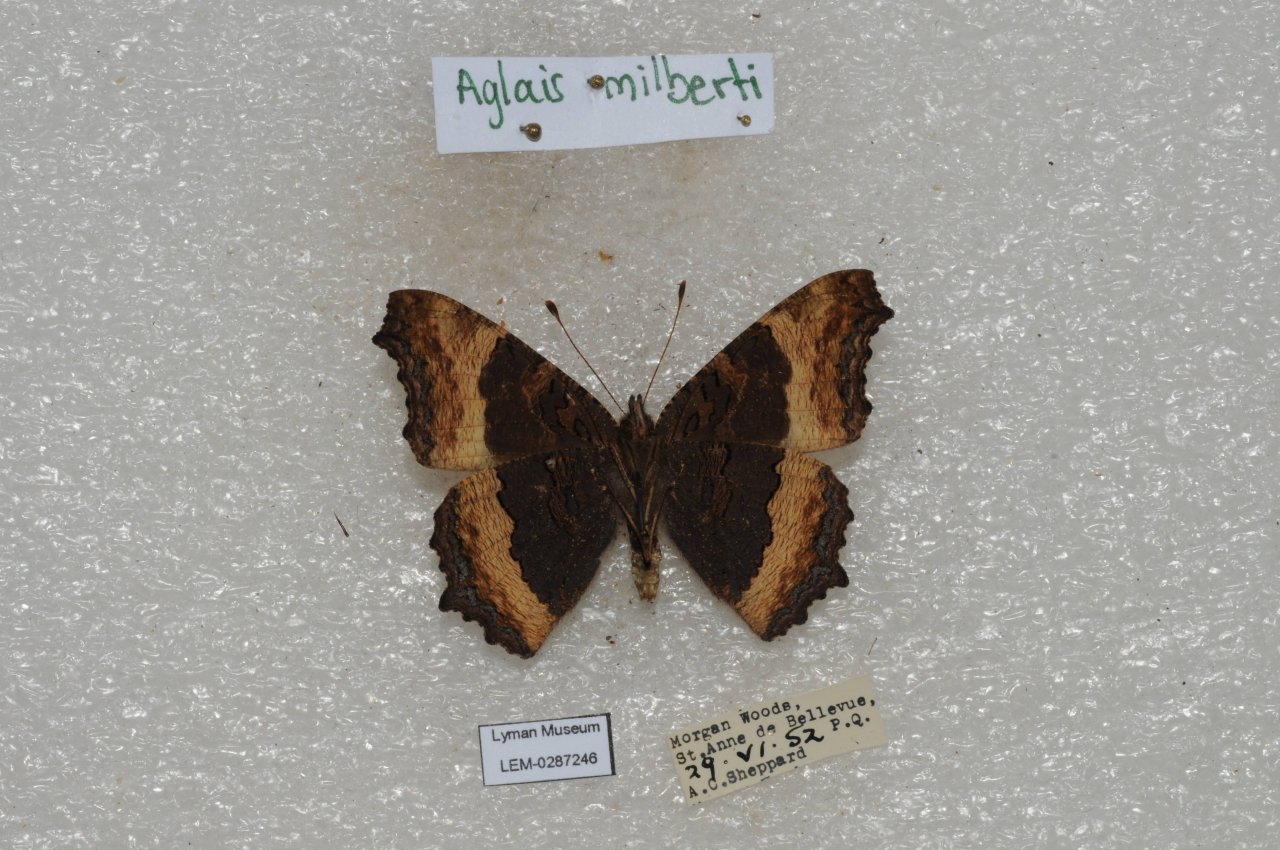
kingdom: Animalia
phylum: Arthropoda
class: Insecta
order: Lepidoptera
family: Nymphalidae
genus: Aglais
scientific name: Aglais milberti
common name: Milbert's Tortoiseshell
